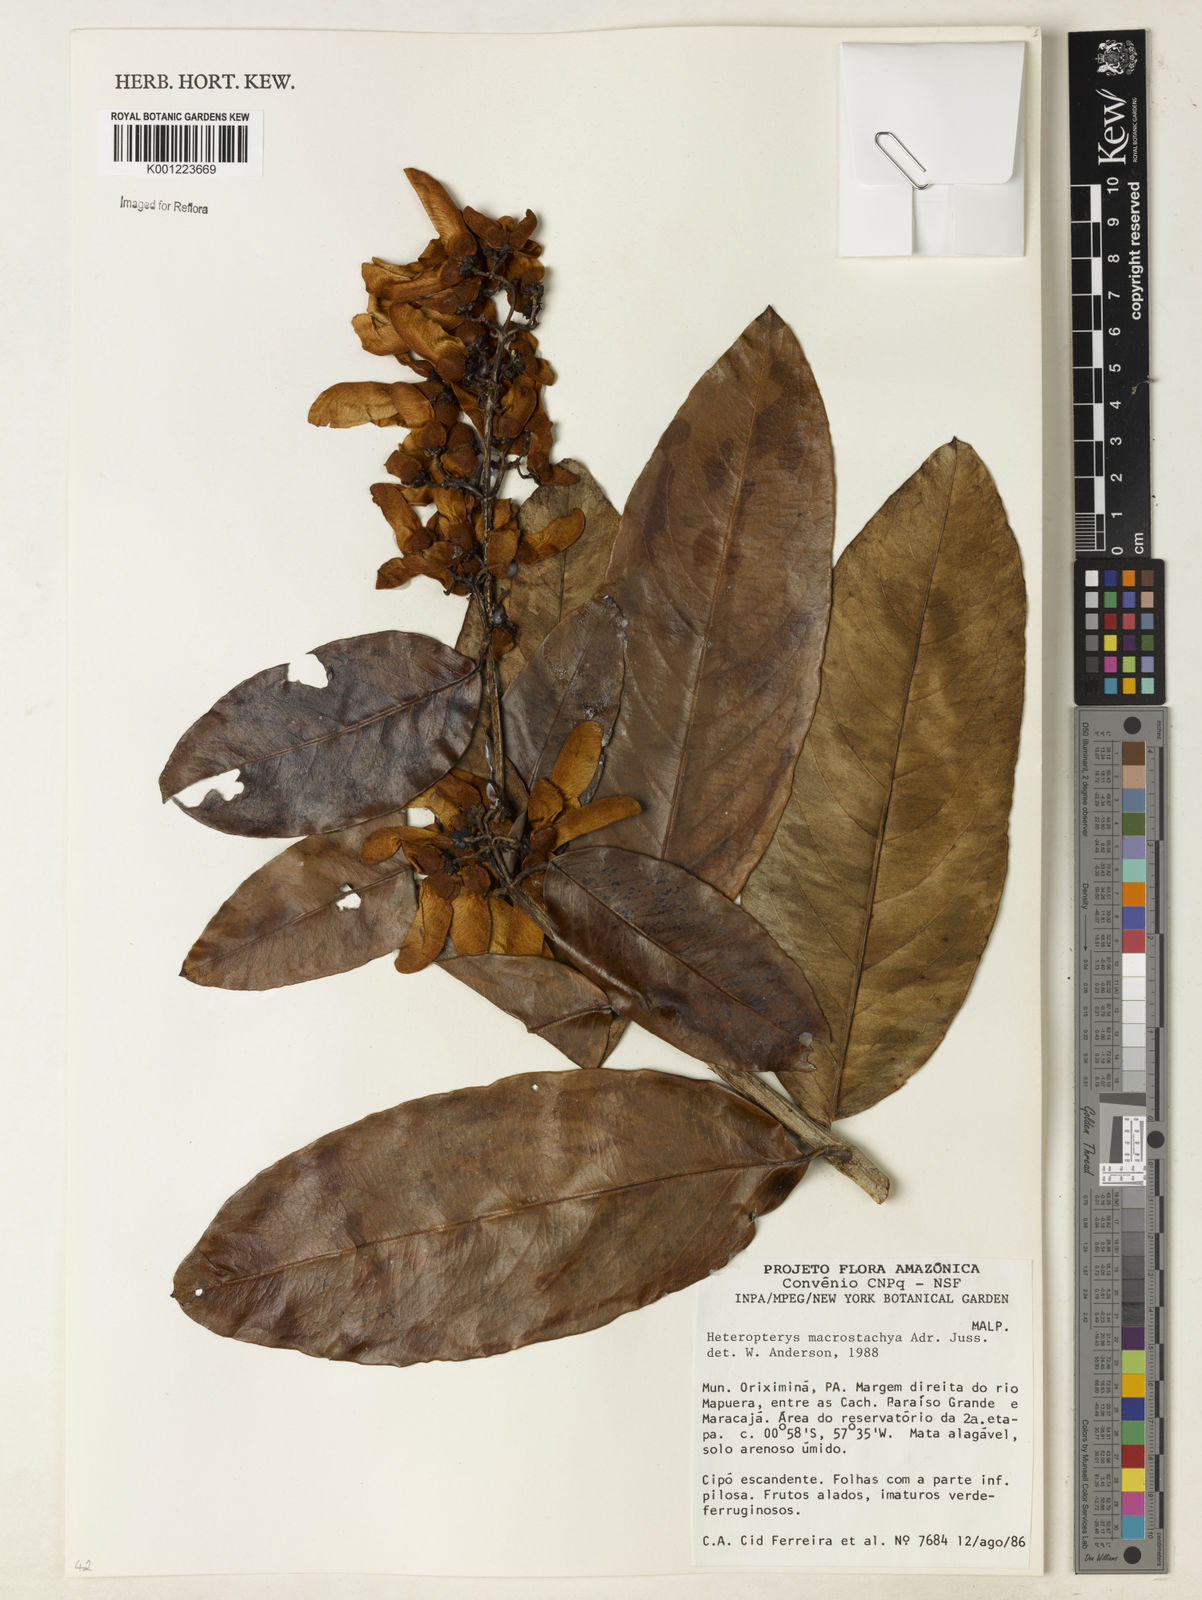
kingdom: Plantae
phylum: Tracheophyta
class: Magnoliopsida
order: Malpighiales
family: Malpighiaceae
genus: Heteropterys
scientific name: Heteropterys macrostachya
